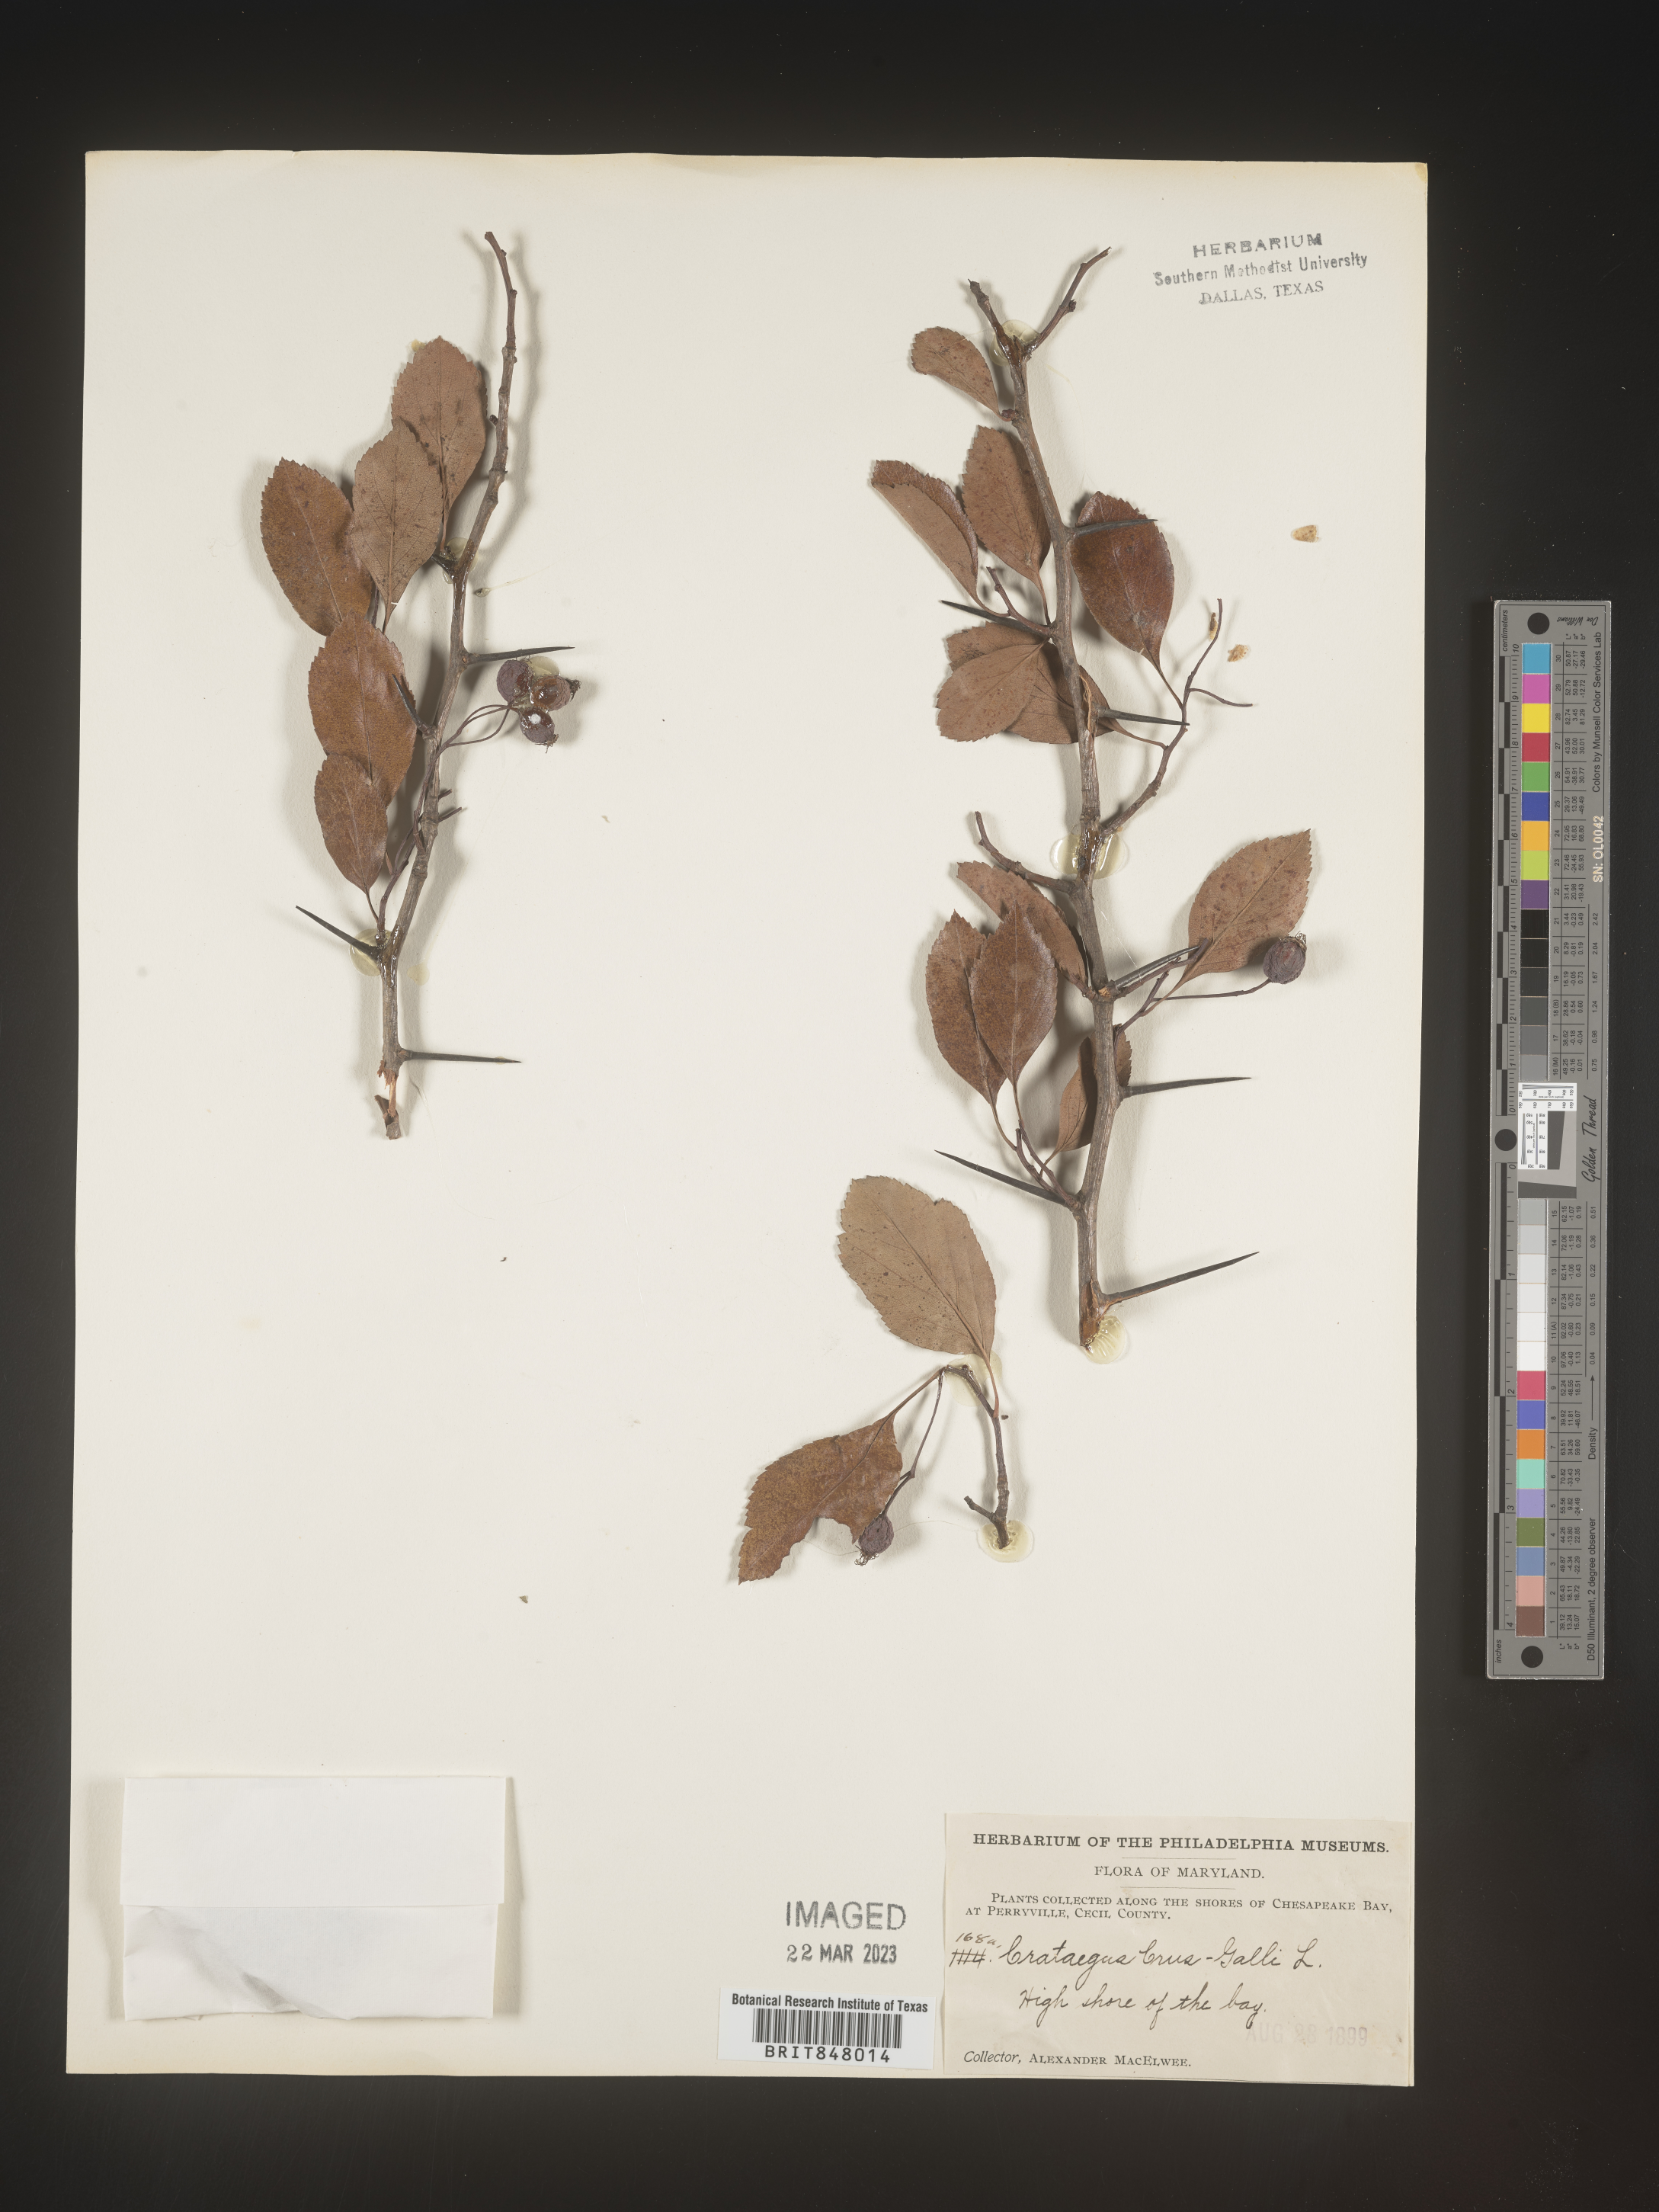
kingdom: Plantae
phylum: Tracheophyta
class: Magnoliopsida
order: Rosales
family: Rosaceae
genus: Crataegus
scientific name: Crataegus crus-galli
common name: Cockspurthorn
